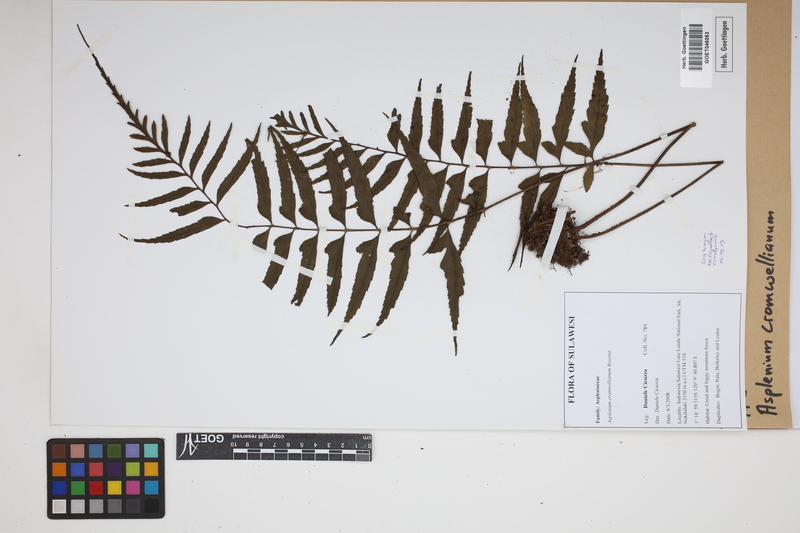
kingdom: Plantae
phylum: Tracheophyta
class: Polypodiopsida
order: Polypodiales
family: Aspleniaceae
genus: Asplenium
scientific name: Asplenium lobulatum
